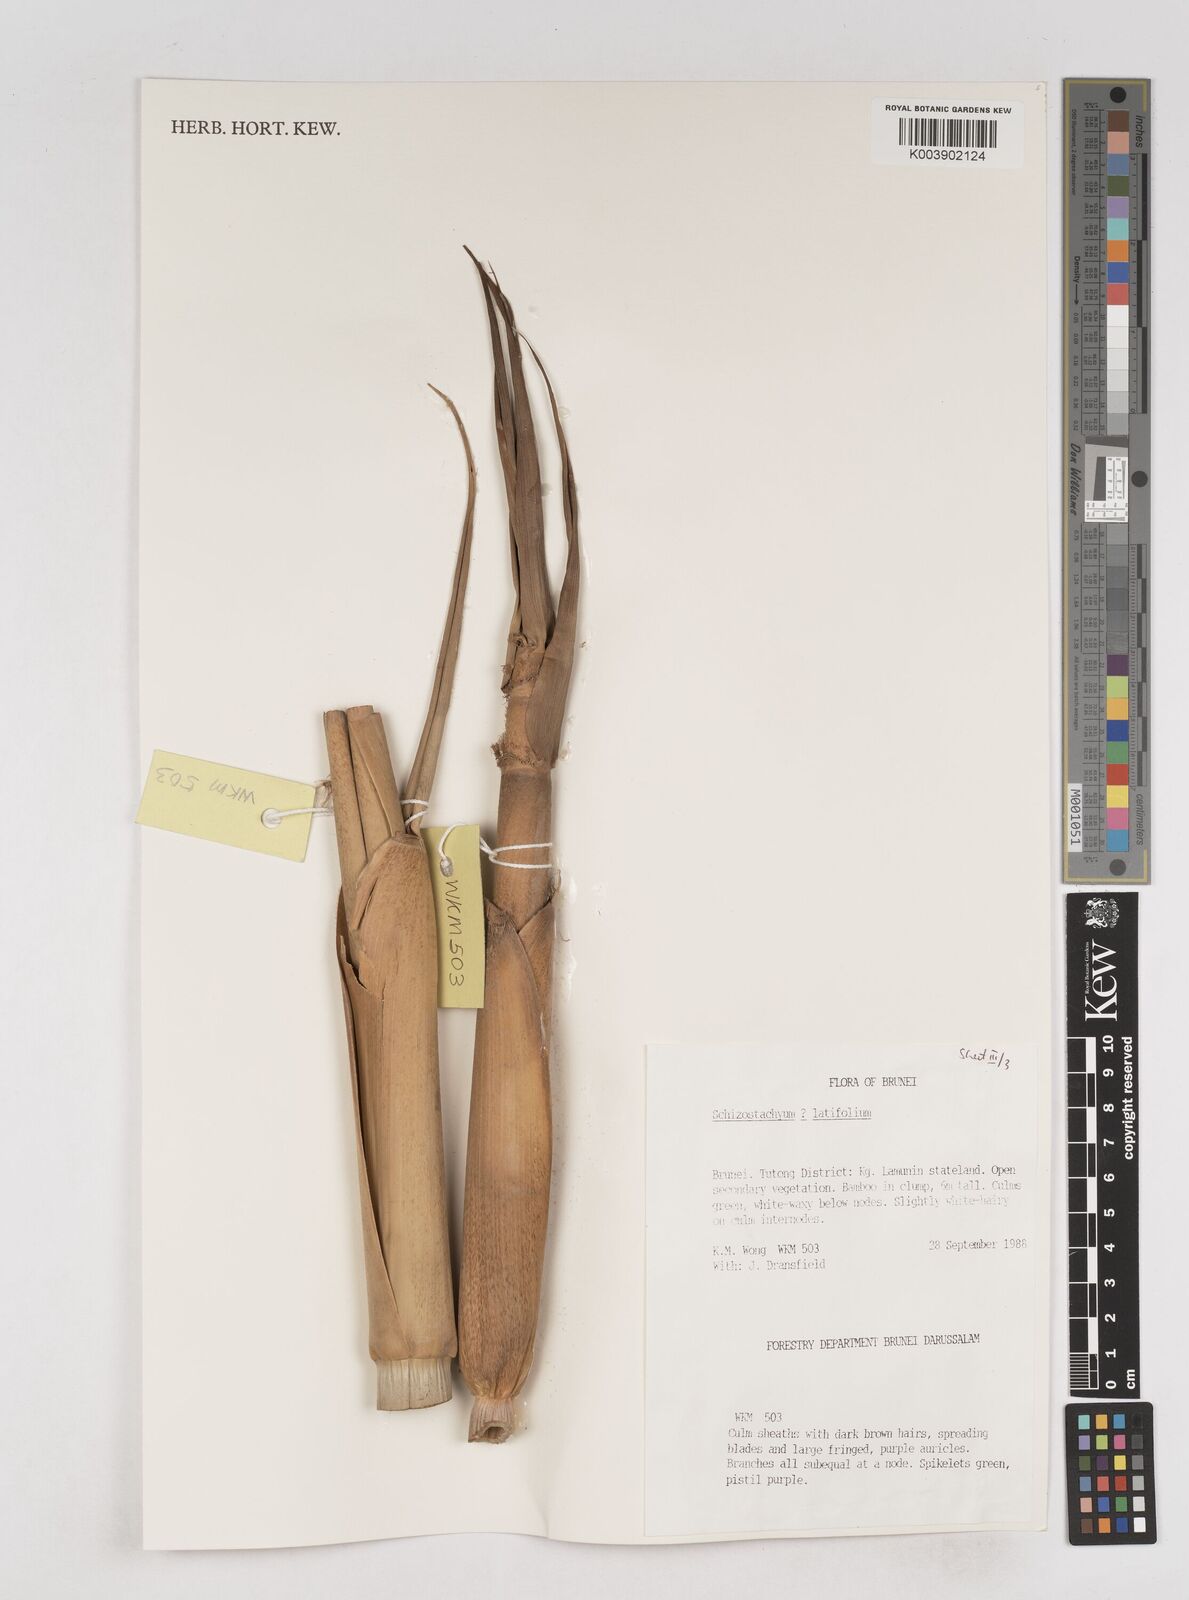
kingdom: Plantae
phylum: Tracheophyta
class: Liliopsida
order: Poales
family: Poaceae
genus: Schizostachyum
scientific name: Schizostachyum
